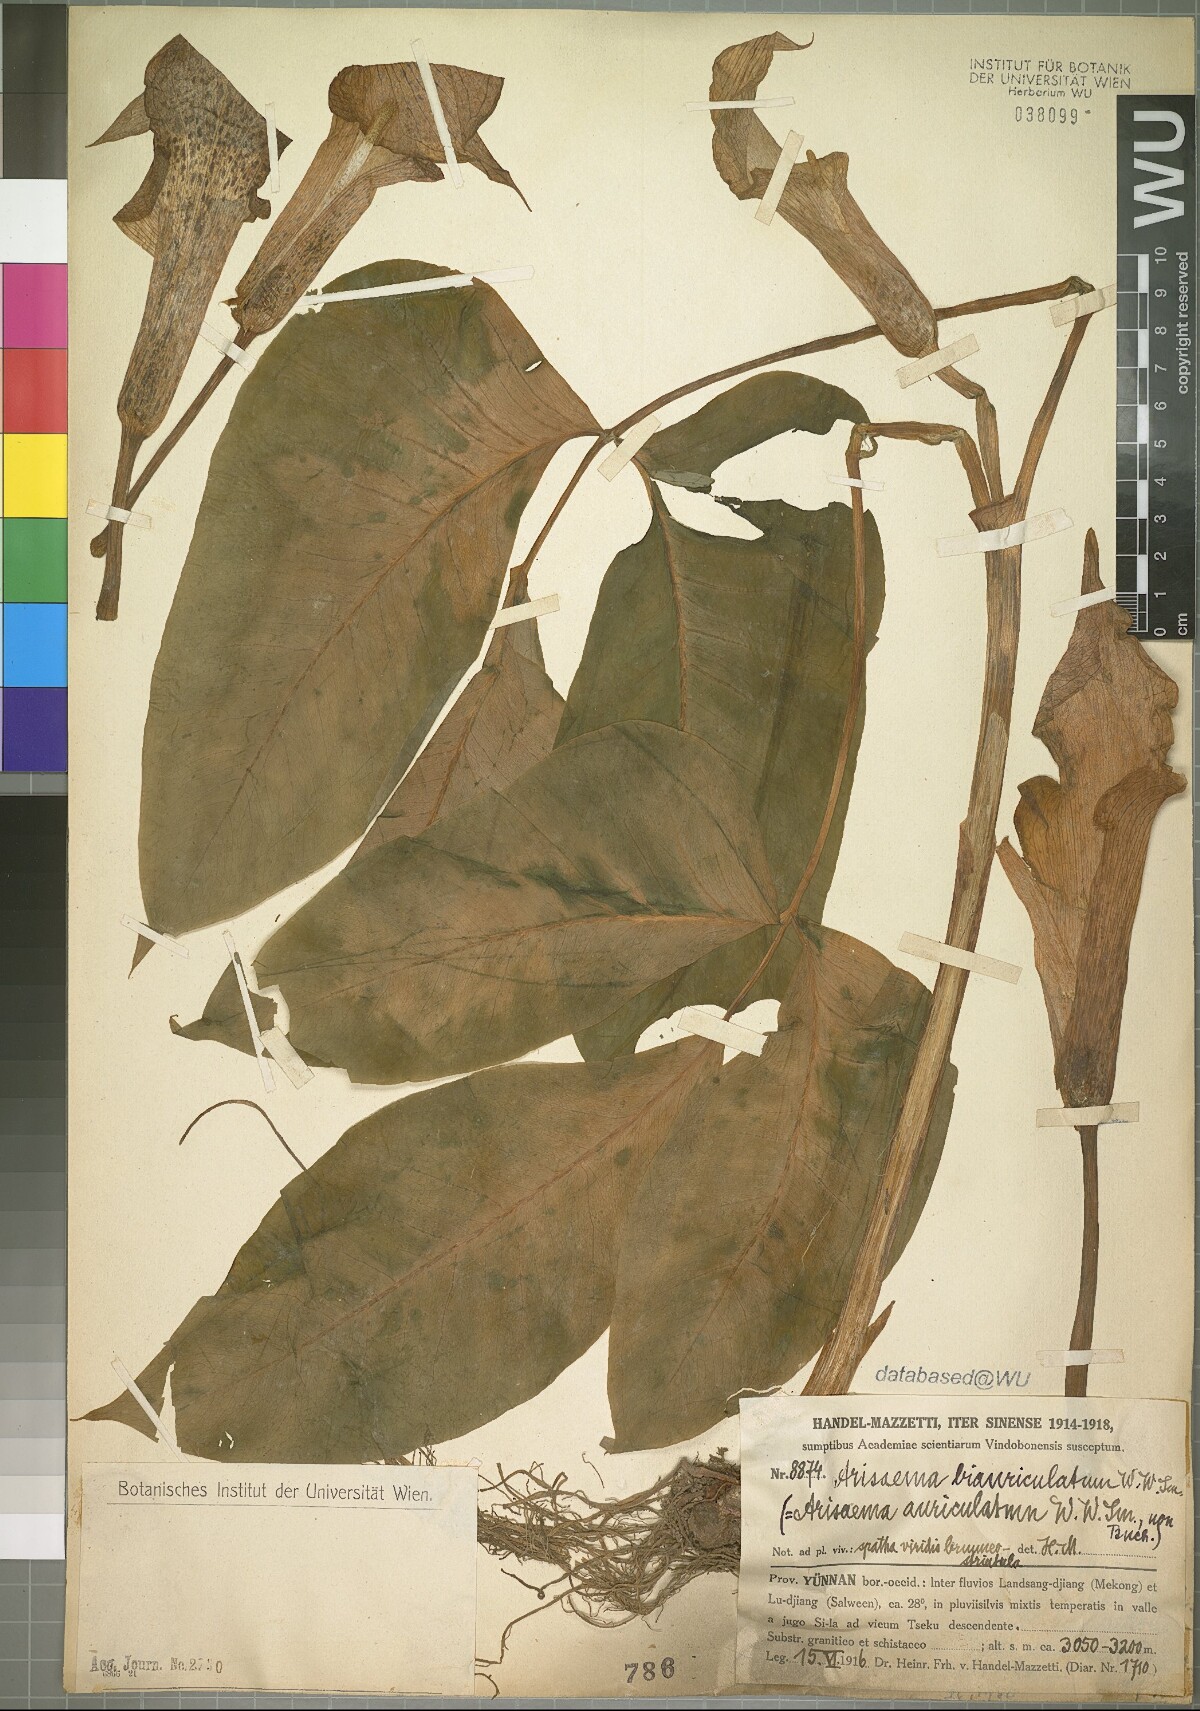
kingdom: Plantae
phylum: Tracheophyta
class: Liliopsida
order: Alismatales
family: Araceae
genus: Arisaema
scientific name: Arisaema wattii
